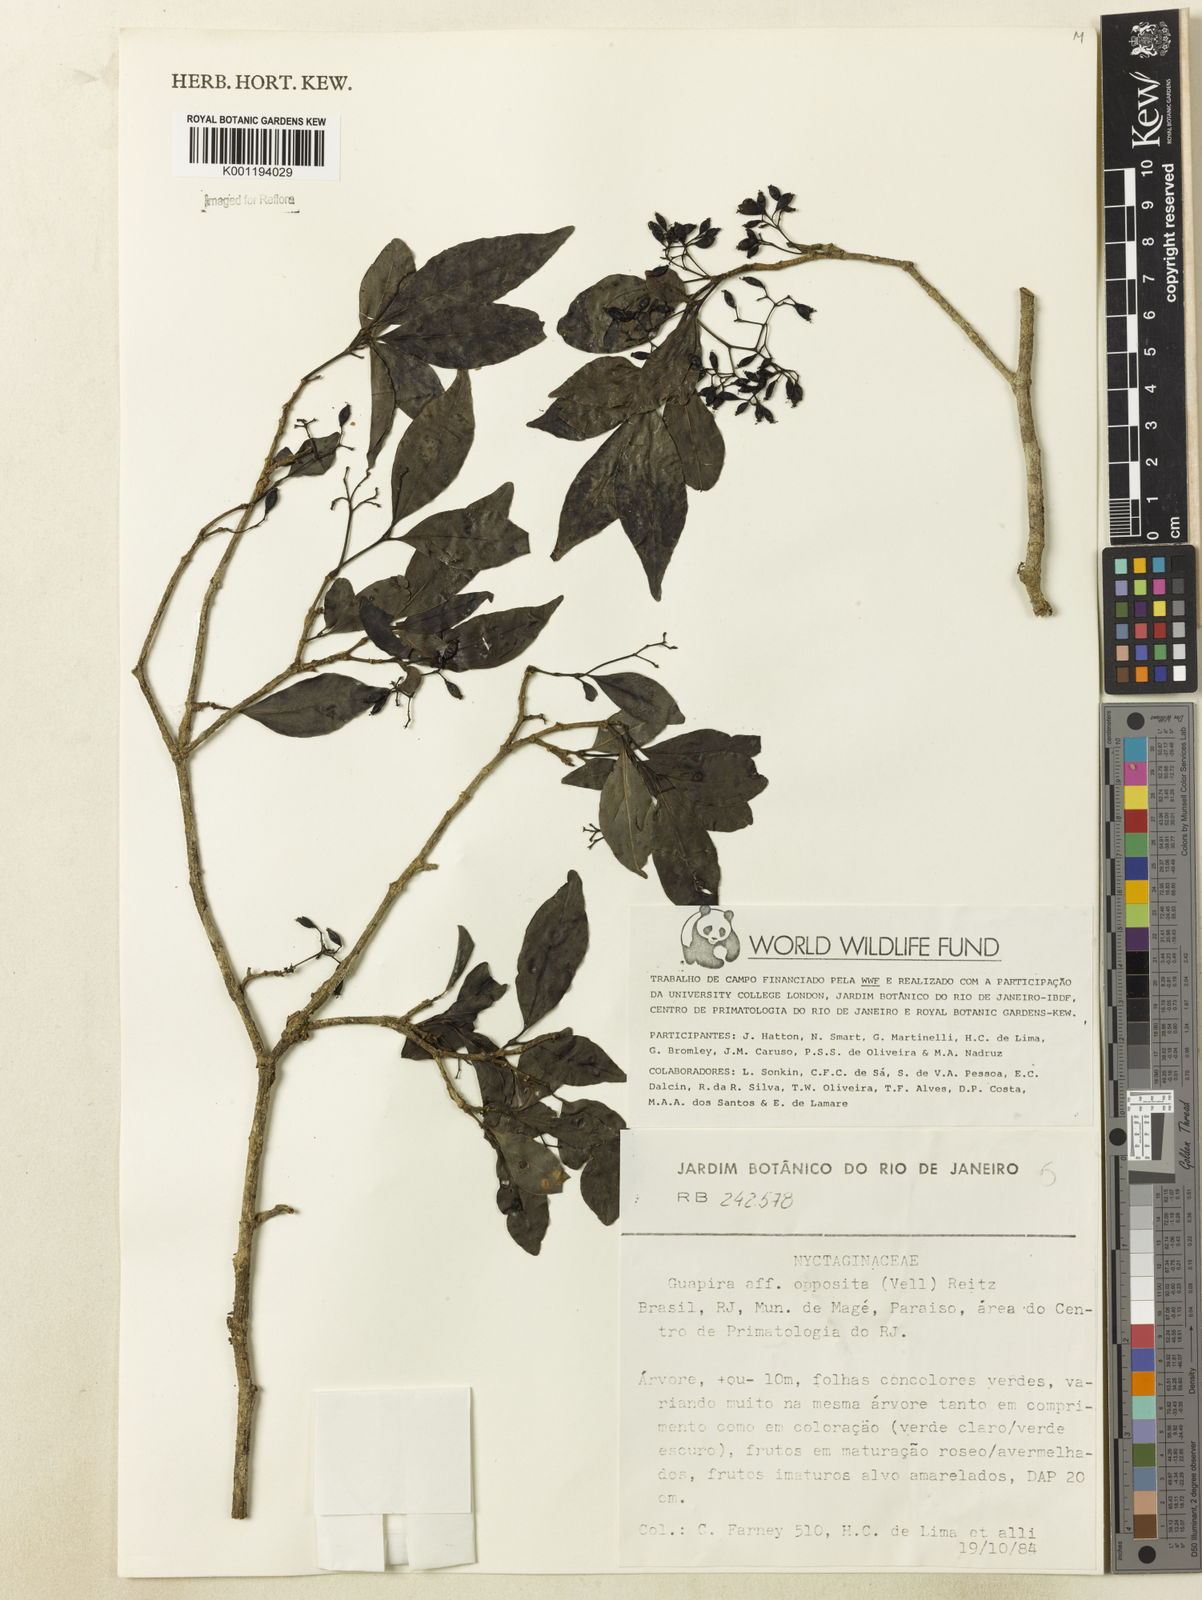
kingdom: Plantae
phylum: Tracheophyta
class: Magnoliopsida
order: Caryophyllales
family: Nyctaginaceae
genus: Guapira
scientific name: Guapira opposita
